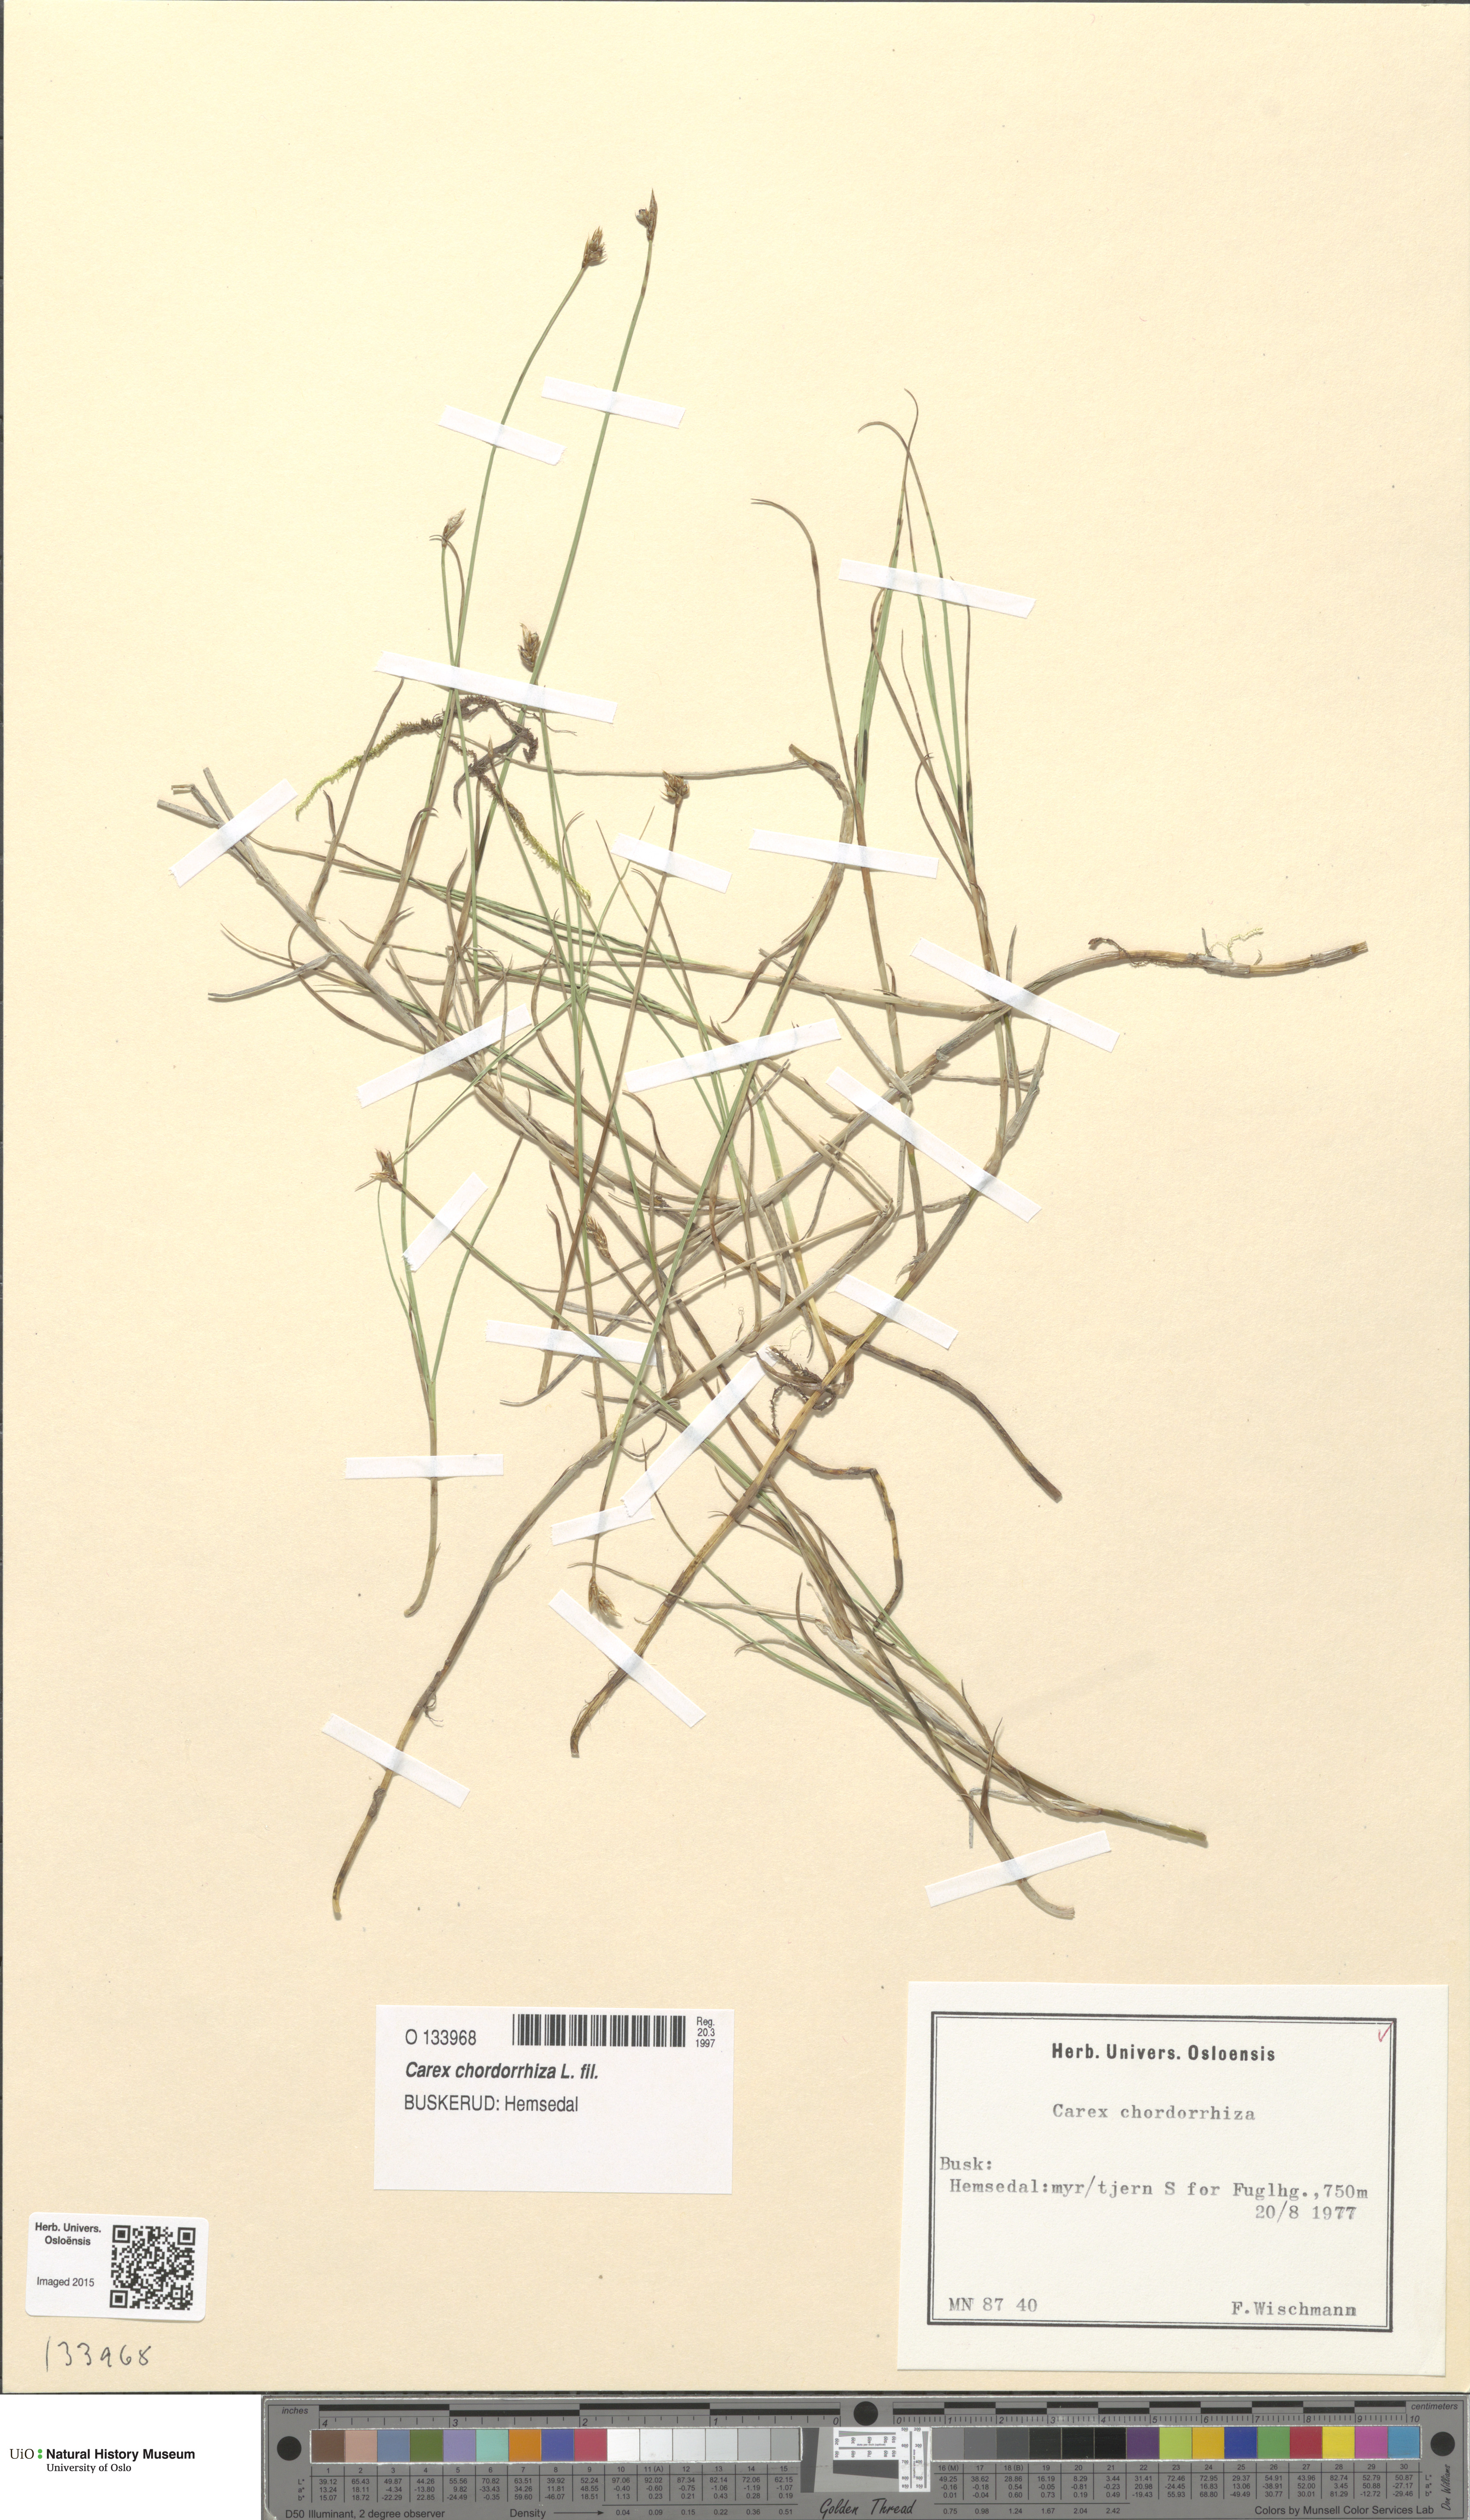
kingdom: Plantae
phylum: Tracheophyta
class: Liliopsida
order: Poales
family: Cyperaceae
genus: Carex
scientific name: Carex chordorrhiza
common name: String sedge
